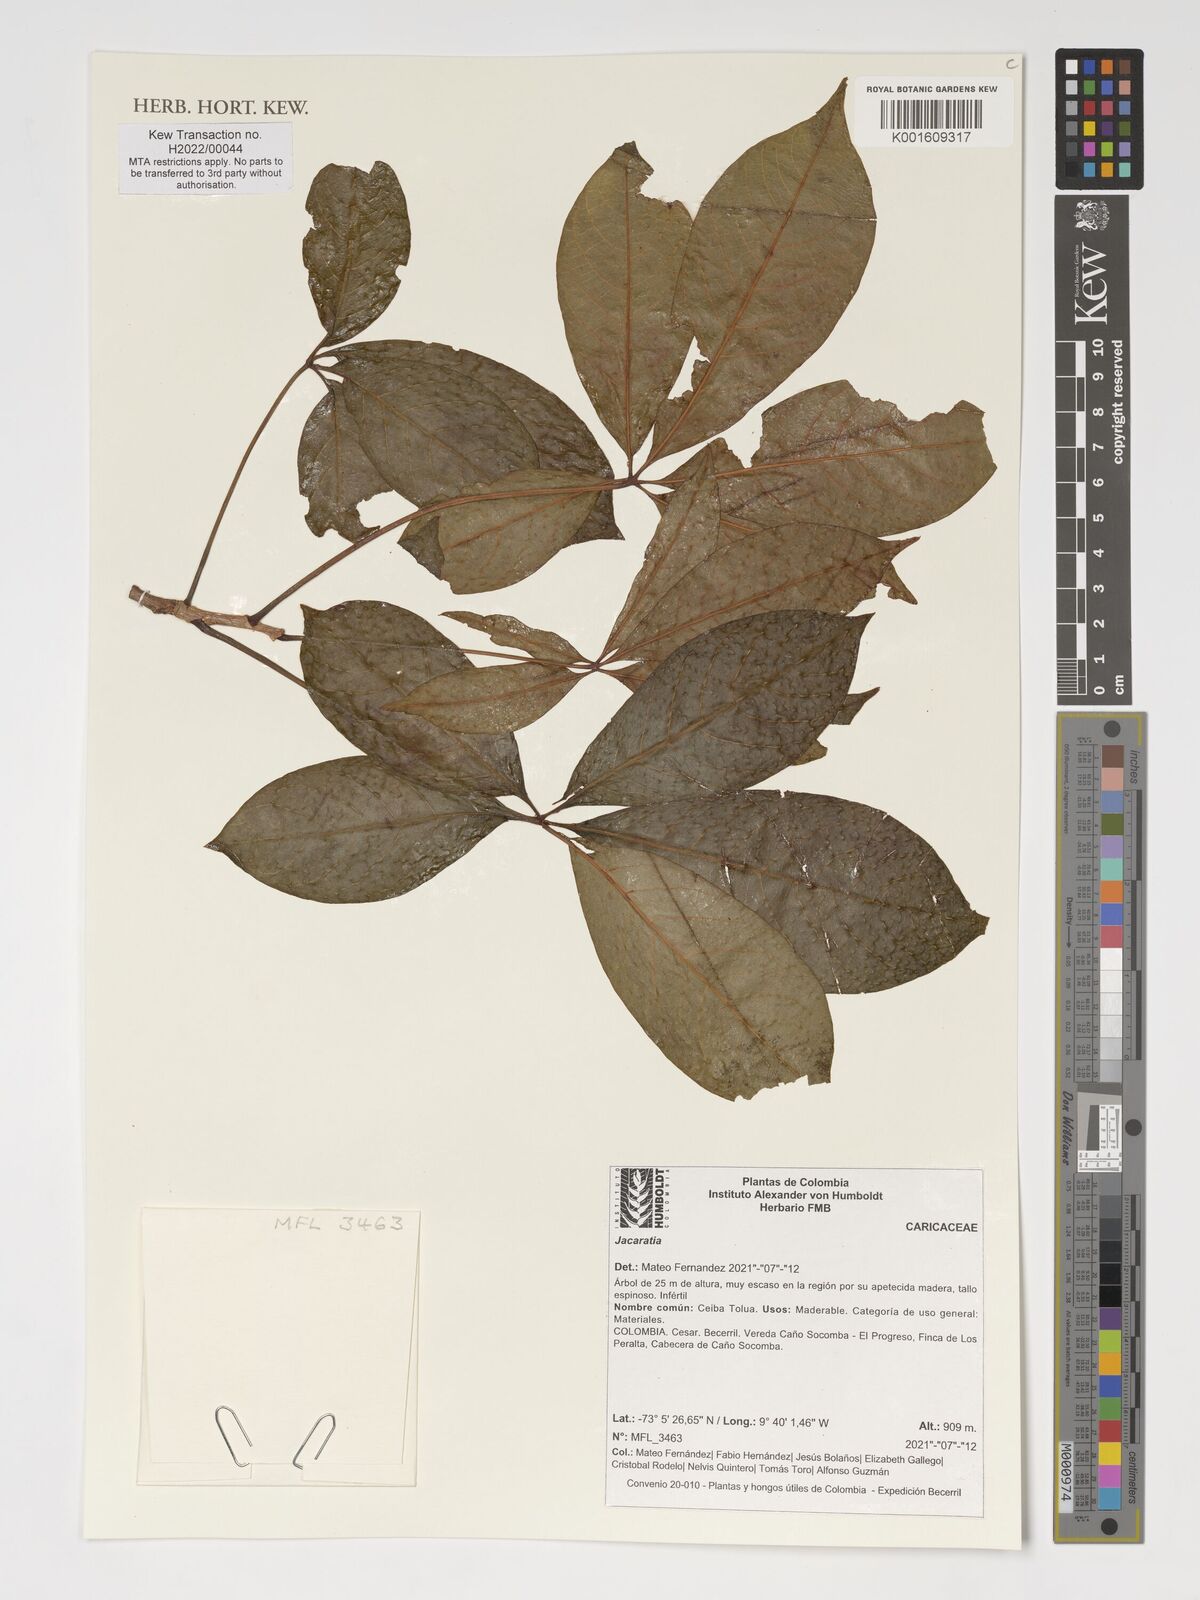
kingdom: Plantae
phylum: Tracheophyta
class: Magnoliopsida
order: Brassicales
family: Caricaceae
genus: Jacaratia
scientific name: Jacaratia
